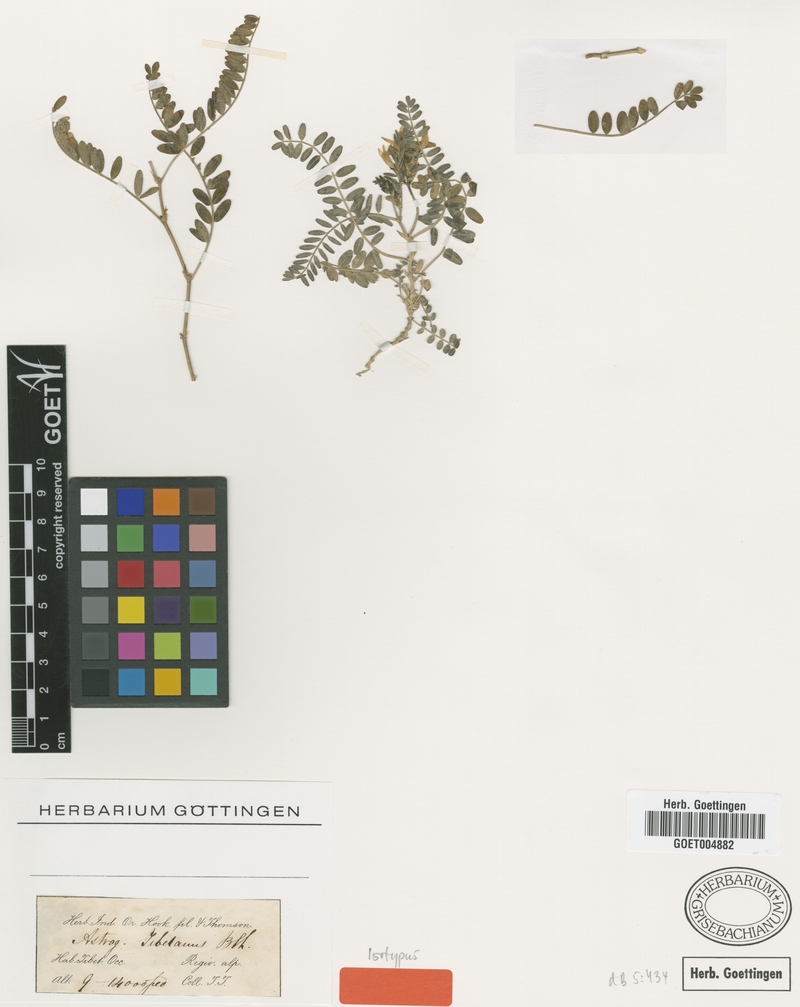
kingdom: Plantae
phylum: Tracheophyta
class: Magnoliopsida
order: Fabales
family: Fabaceae
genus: Astragalus
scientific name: Astragalus tibetanus
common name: Tibet milkvetch
